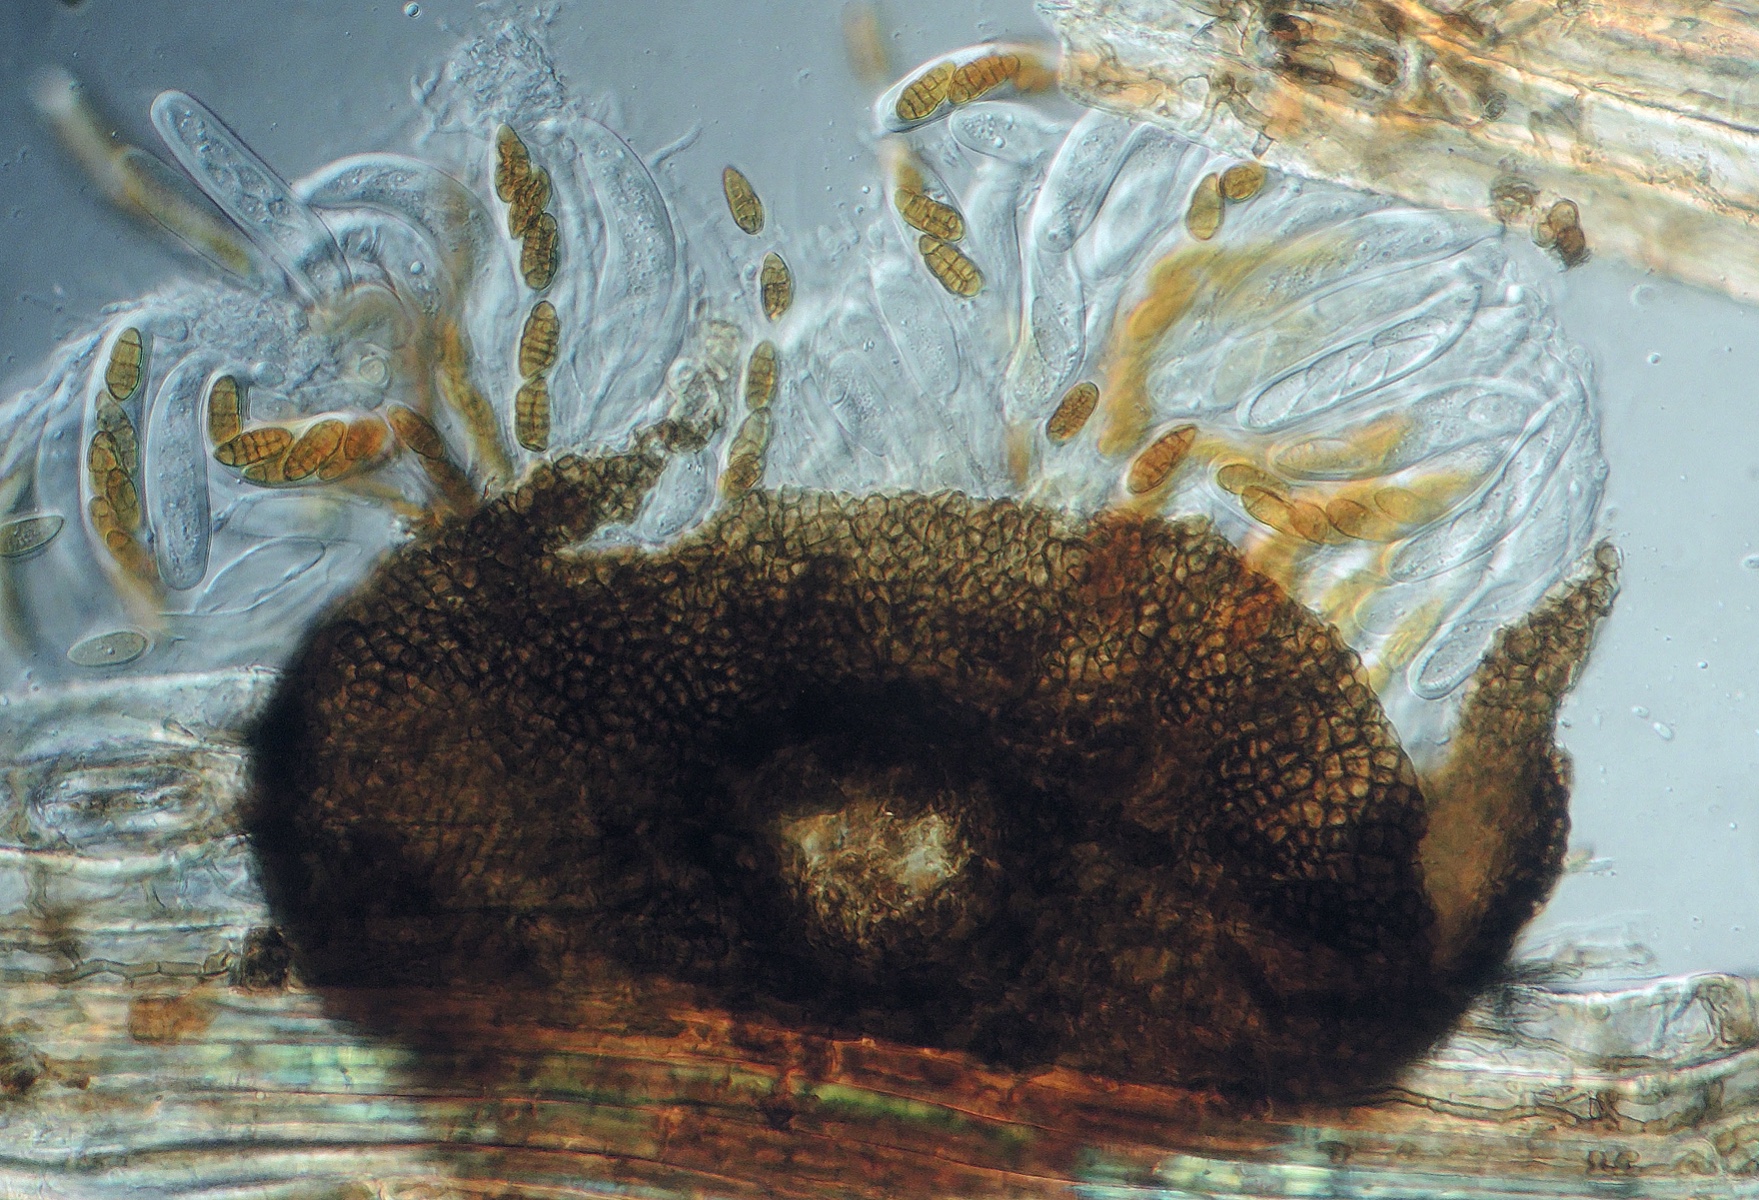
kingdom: Fungi
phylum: Ascomycota
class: Dothideomycetes
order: Pleosporales
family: Pleosporaceae
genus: Pleospora
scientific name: Pleospora phaeocomoides
